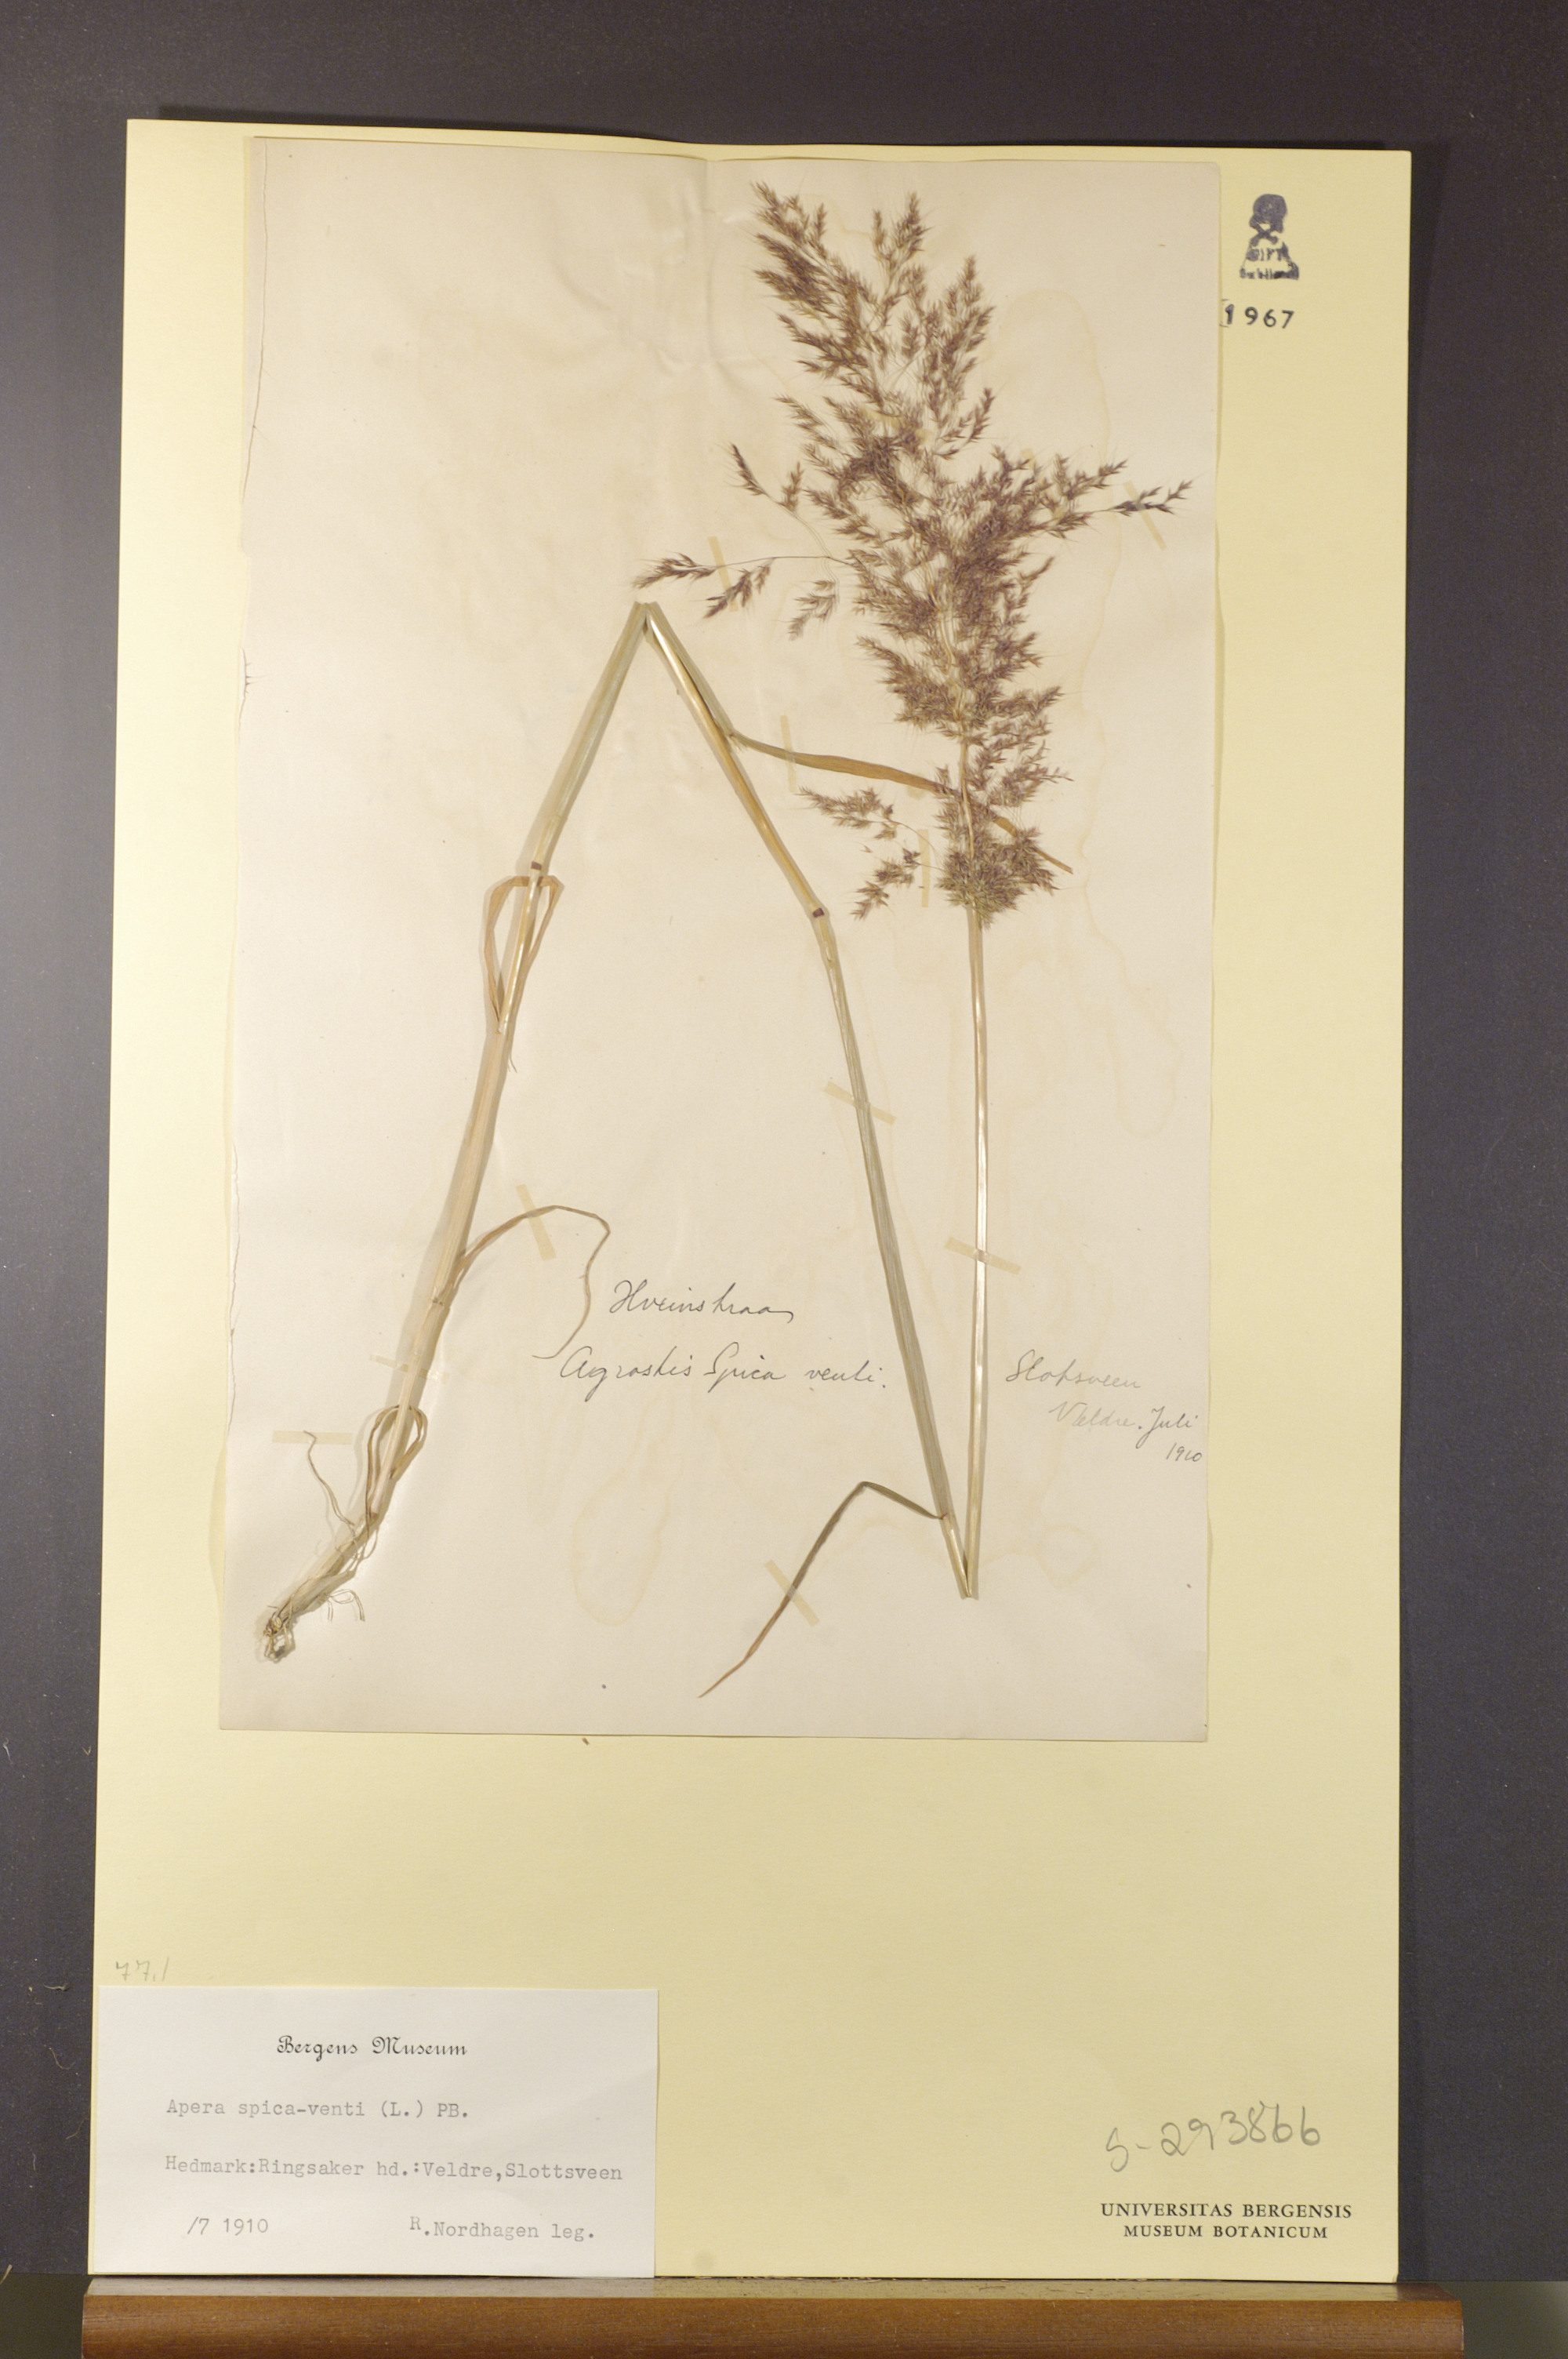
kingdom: Plantae
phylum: Tracheophyta
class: Liliopsida
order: Poales
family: Poaceae
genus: Apera
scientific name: Apera spica-venti
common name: Loose silky-bent
